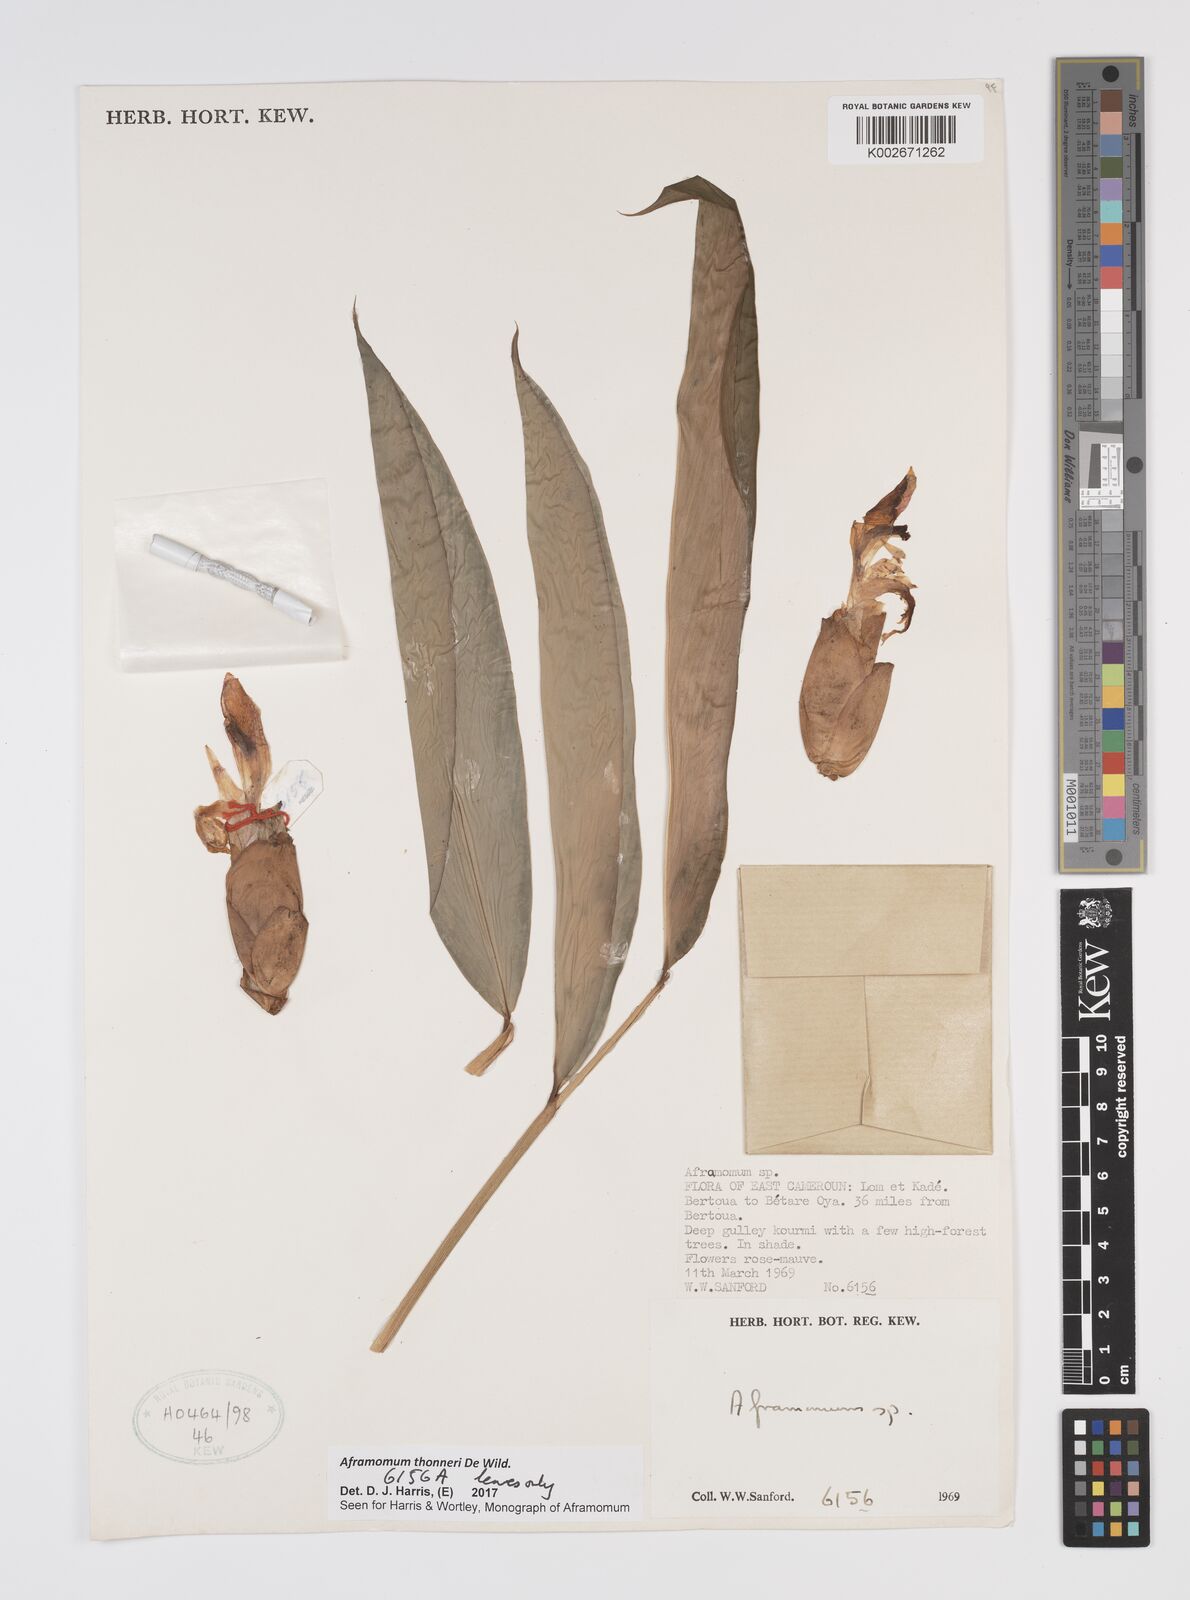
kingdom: Plantae
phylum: Tracheophyta
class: Liliopsida
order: Zingiberales
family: Zingiberaceae
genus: Aframomum
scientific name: Aframomum thonneri
